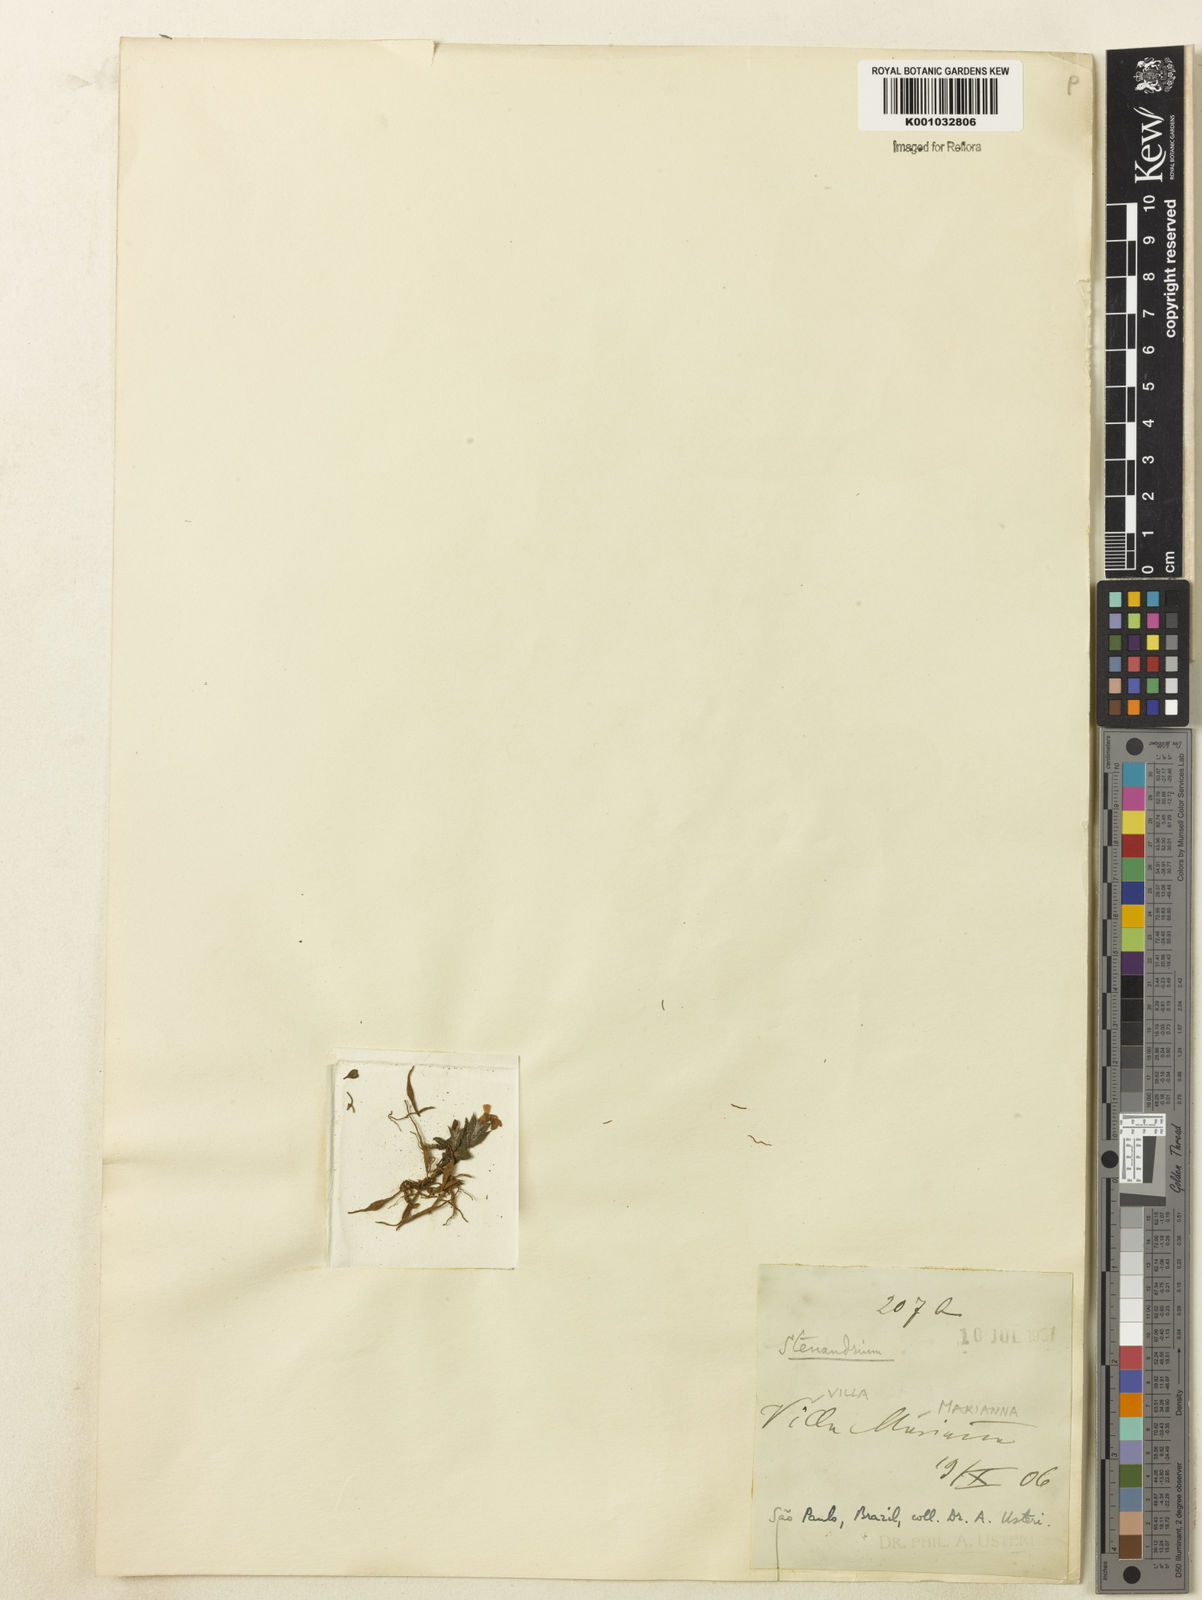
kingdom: Plantae
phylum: Tracheophyta
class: Magnoliopsida
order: Lamiales
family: Acanthaceae
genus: Stenandrium
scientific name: Stenandrium
